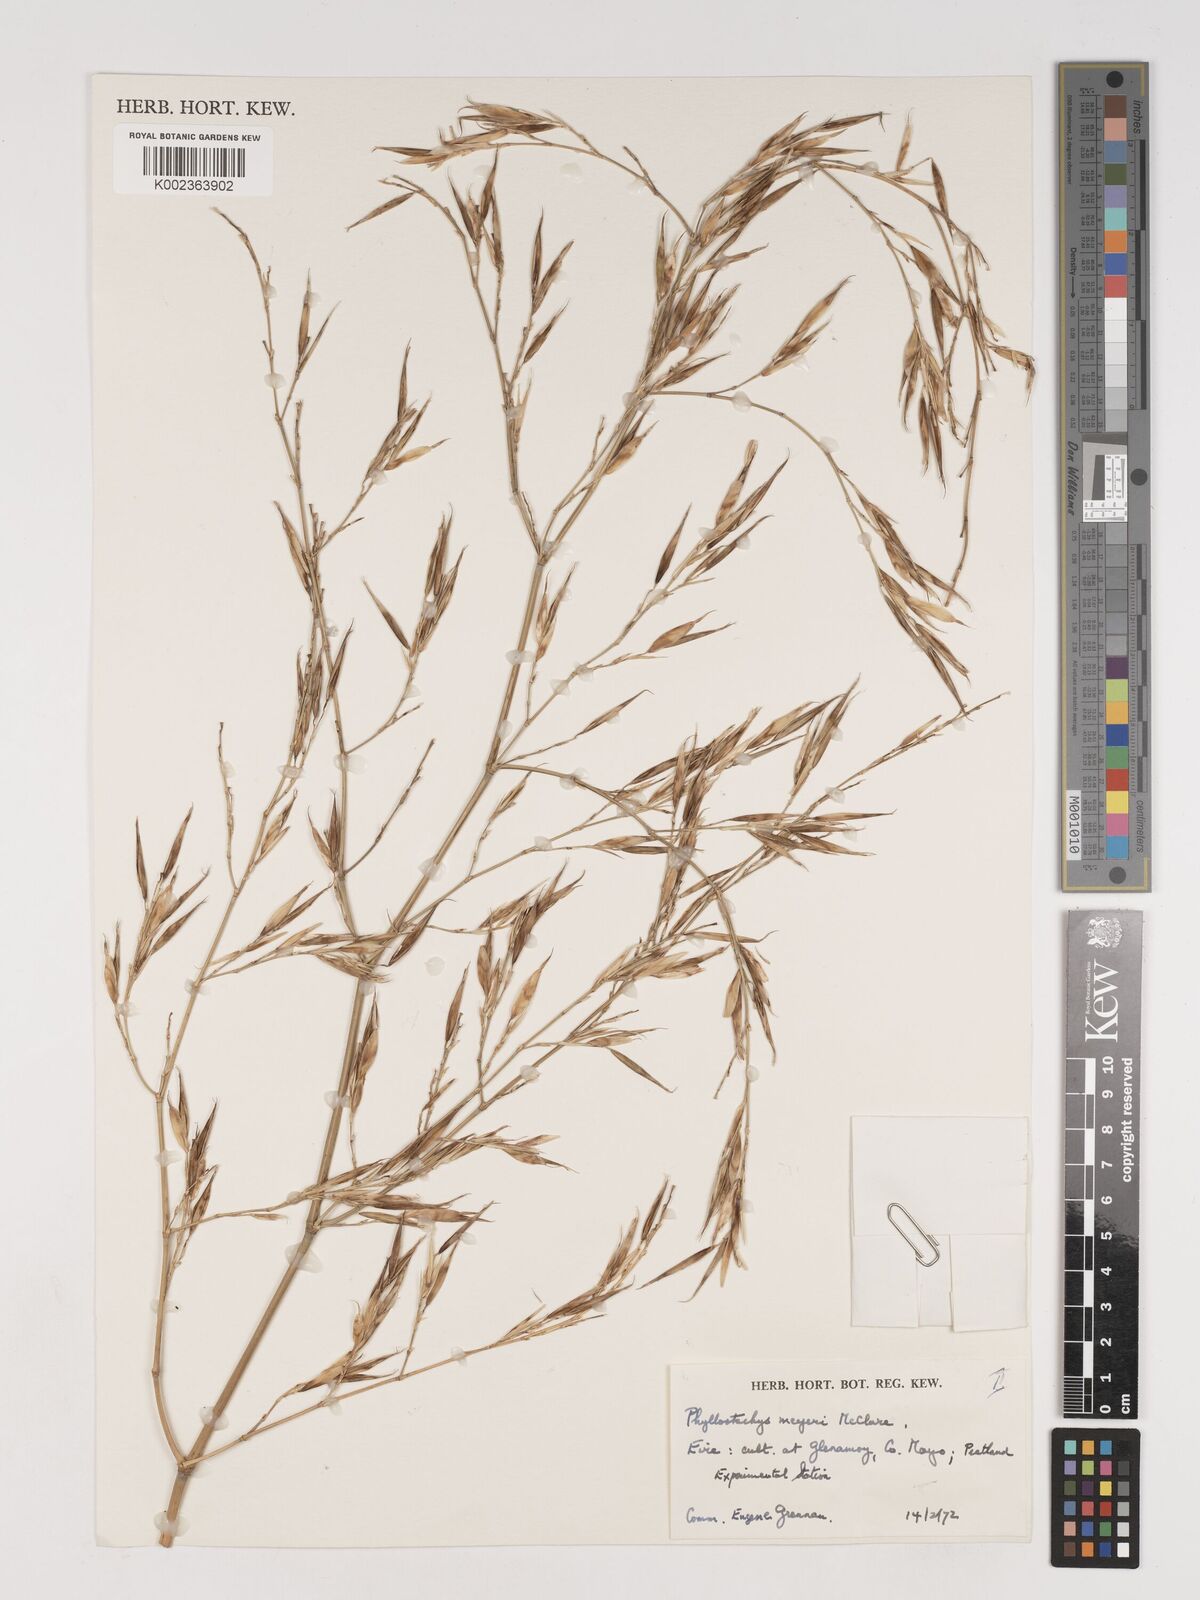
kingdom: Plantae
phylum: Tracheophyta
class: Liliopsida
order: Poales
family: Poaceae
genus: Phyllostachys
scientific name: Phyllostachys meyeri
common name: Meyer's bamboo
